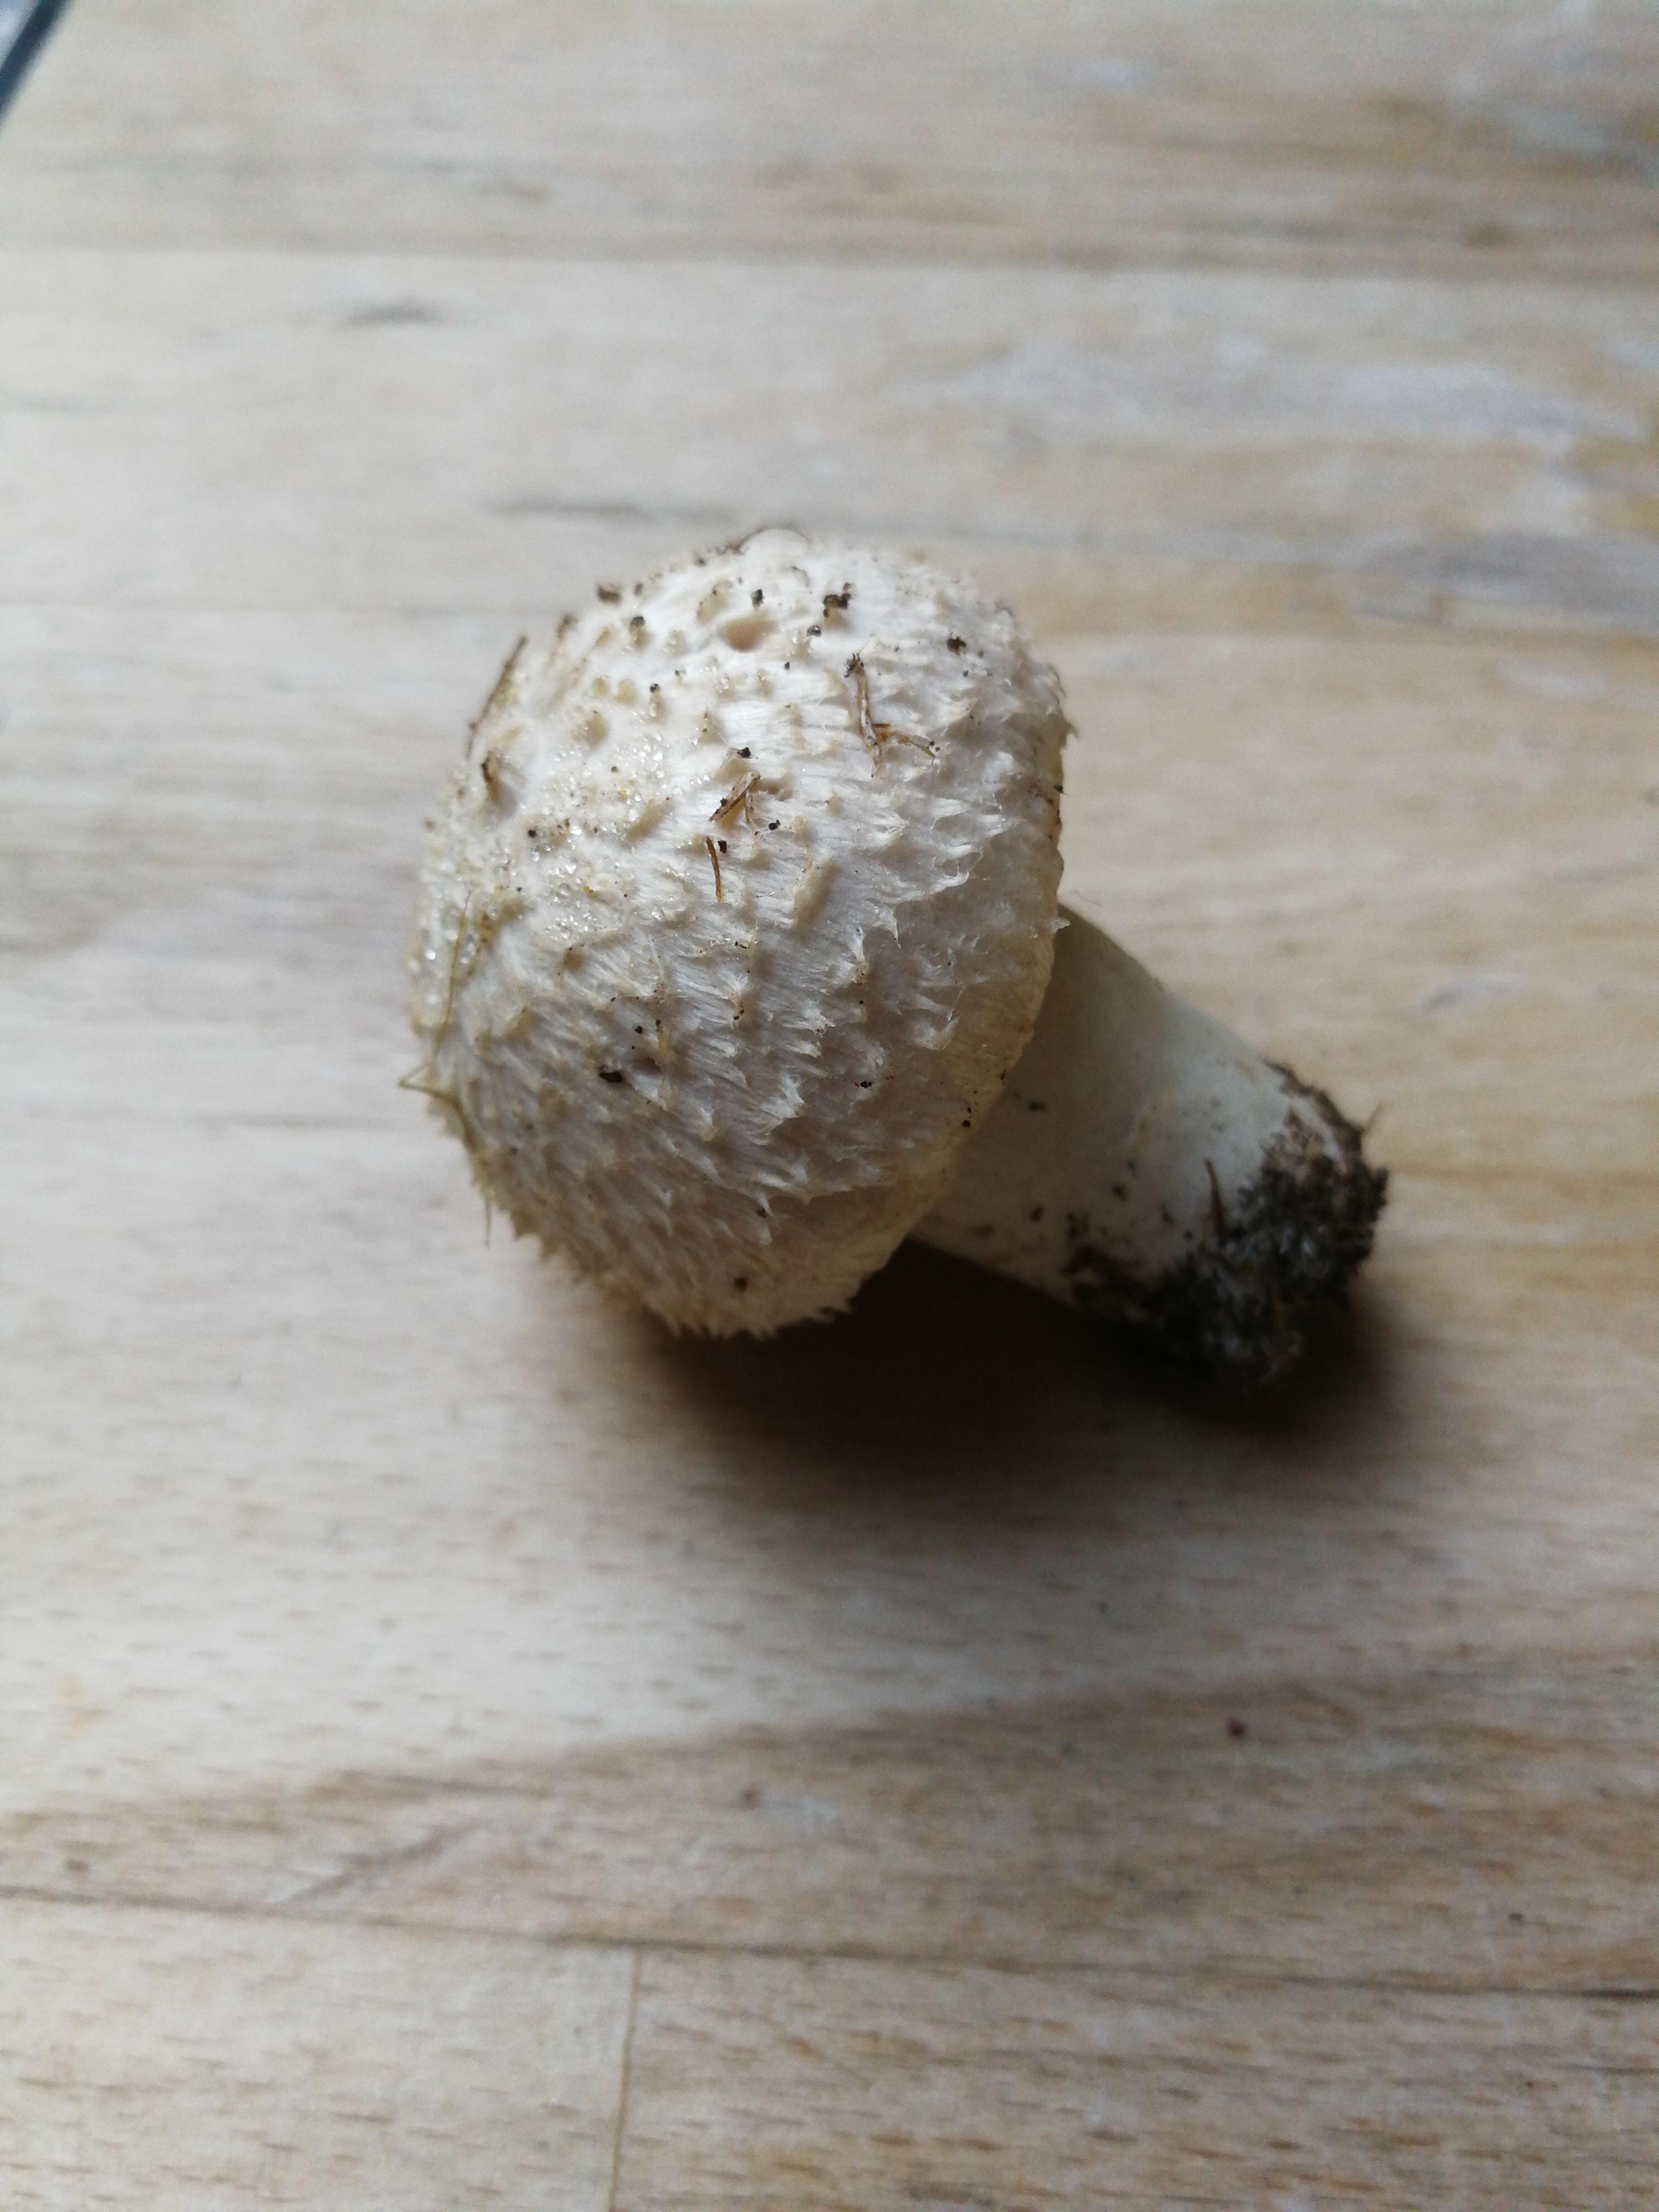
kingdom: Fungi
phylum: Basidiomycota
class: Agaricomycetes
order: Agaricales
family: Agaricaceae
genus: Agaricus
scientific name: Agaricus
